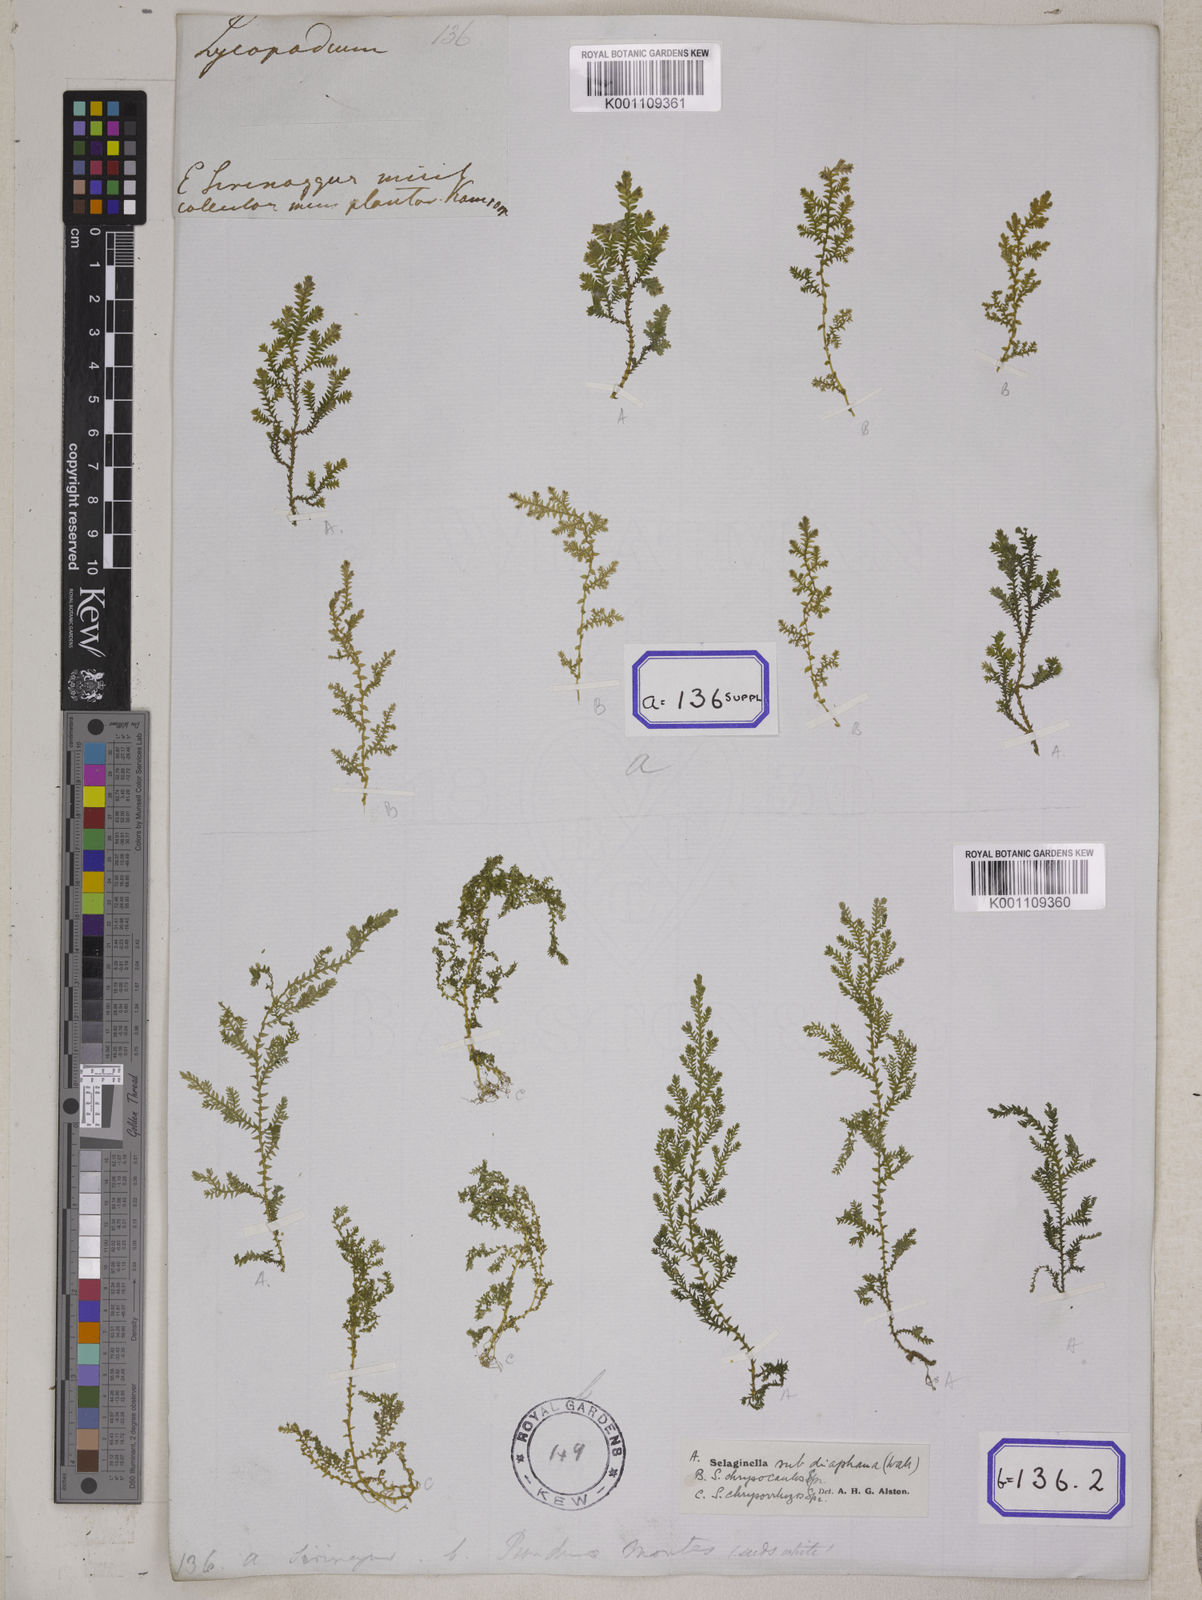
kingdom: Plantae
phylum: Tracheophyta
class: Lycopodiopsida
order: Selaginellales
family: Selaginellaceae
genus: Selaginella
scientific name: Selaginella subdiaphana
